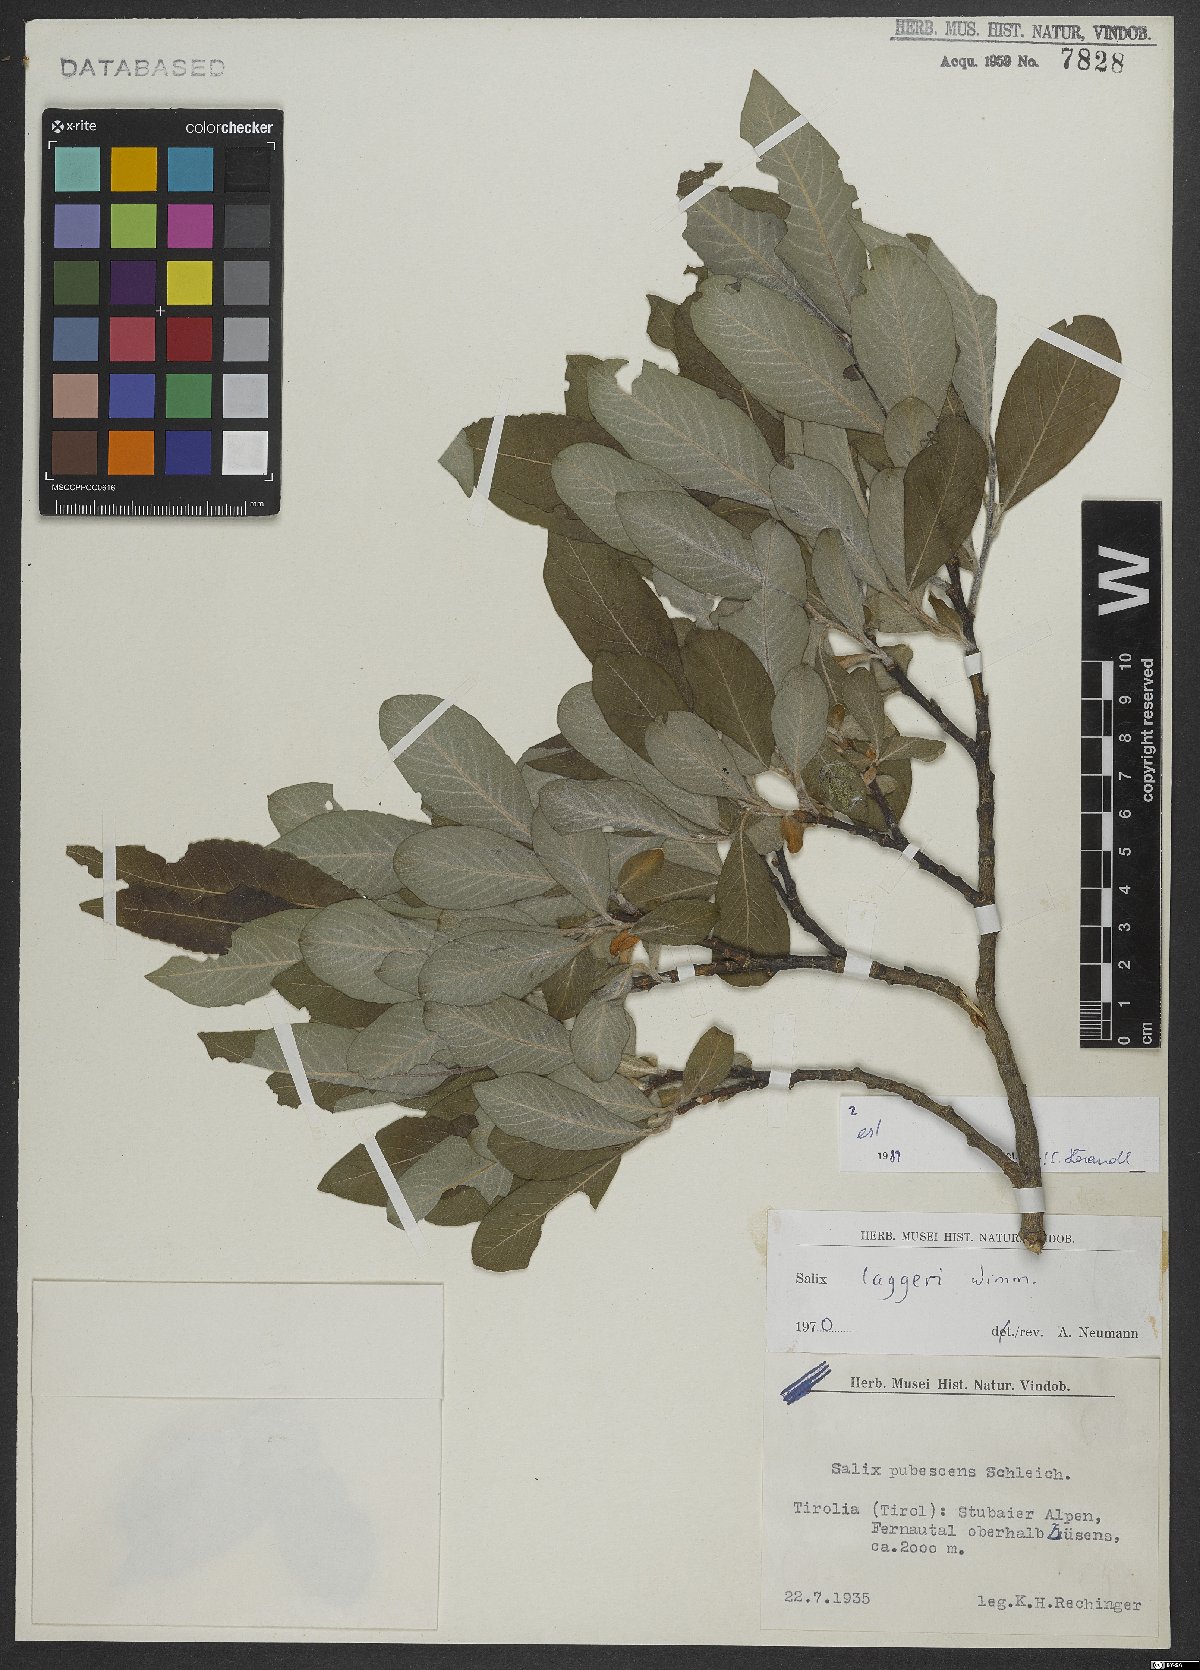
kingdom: Plantae
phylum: Tracheophyta
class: Magnoliopsida
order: Malpighiales
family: Salicaceae
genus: Salix
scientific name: Salix laggeri
